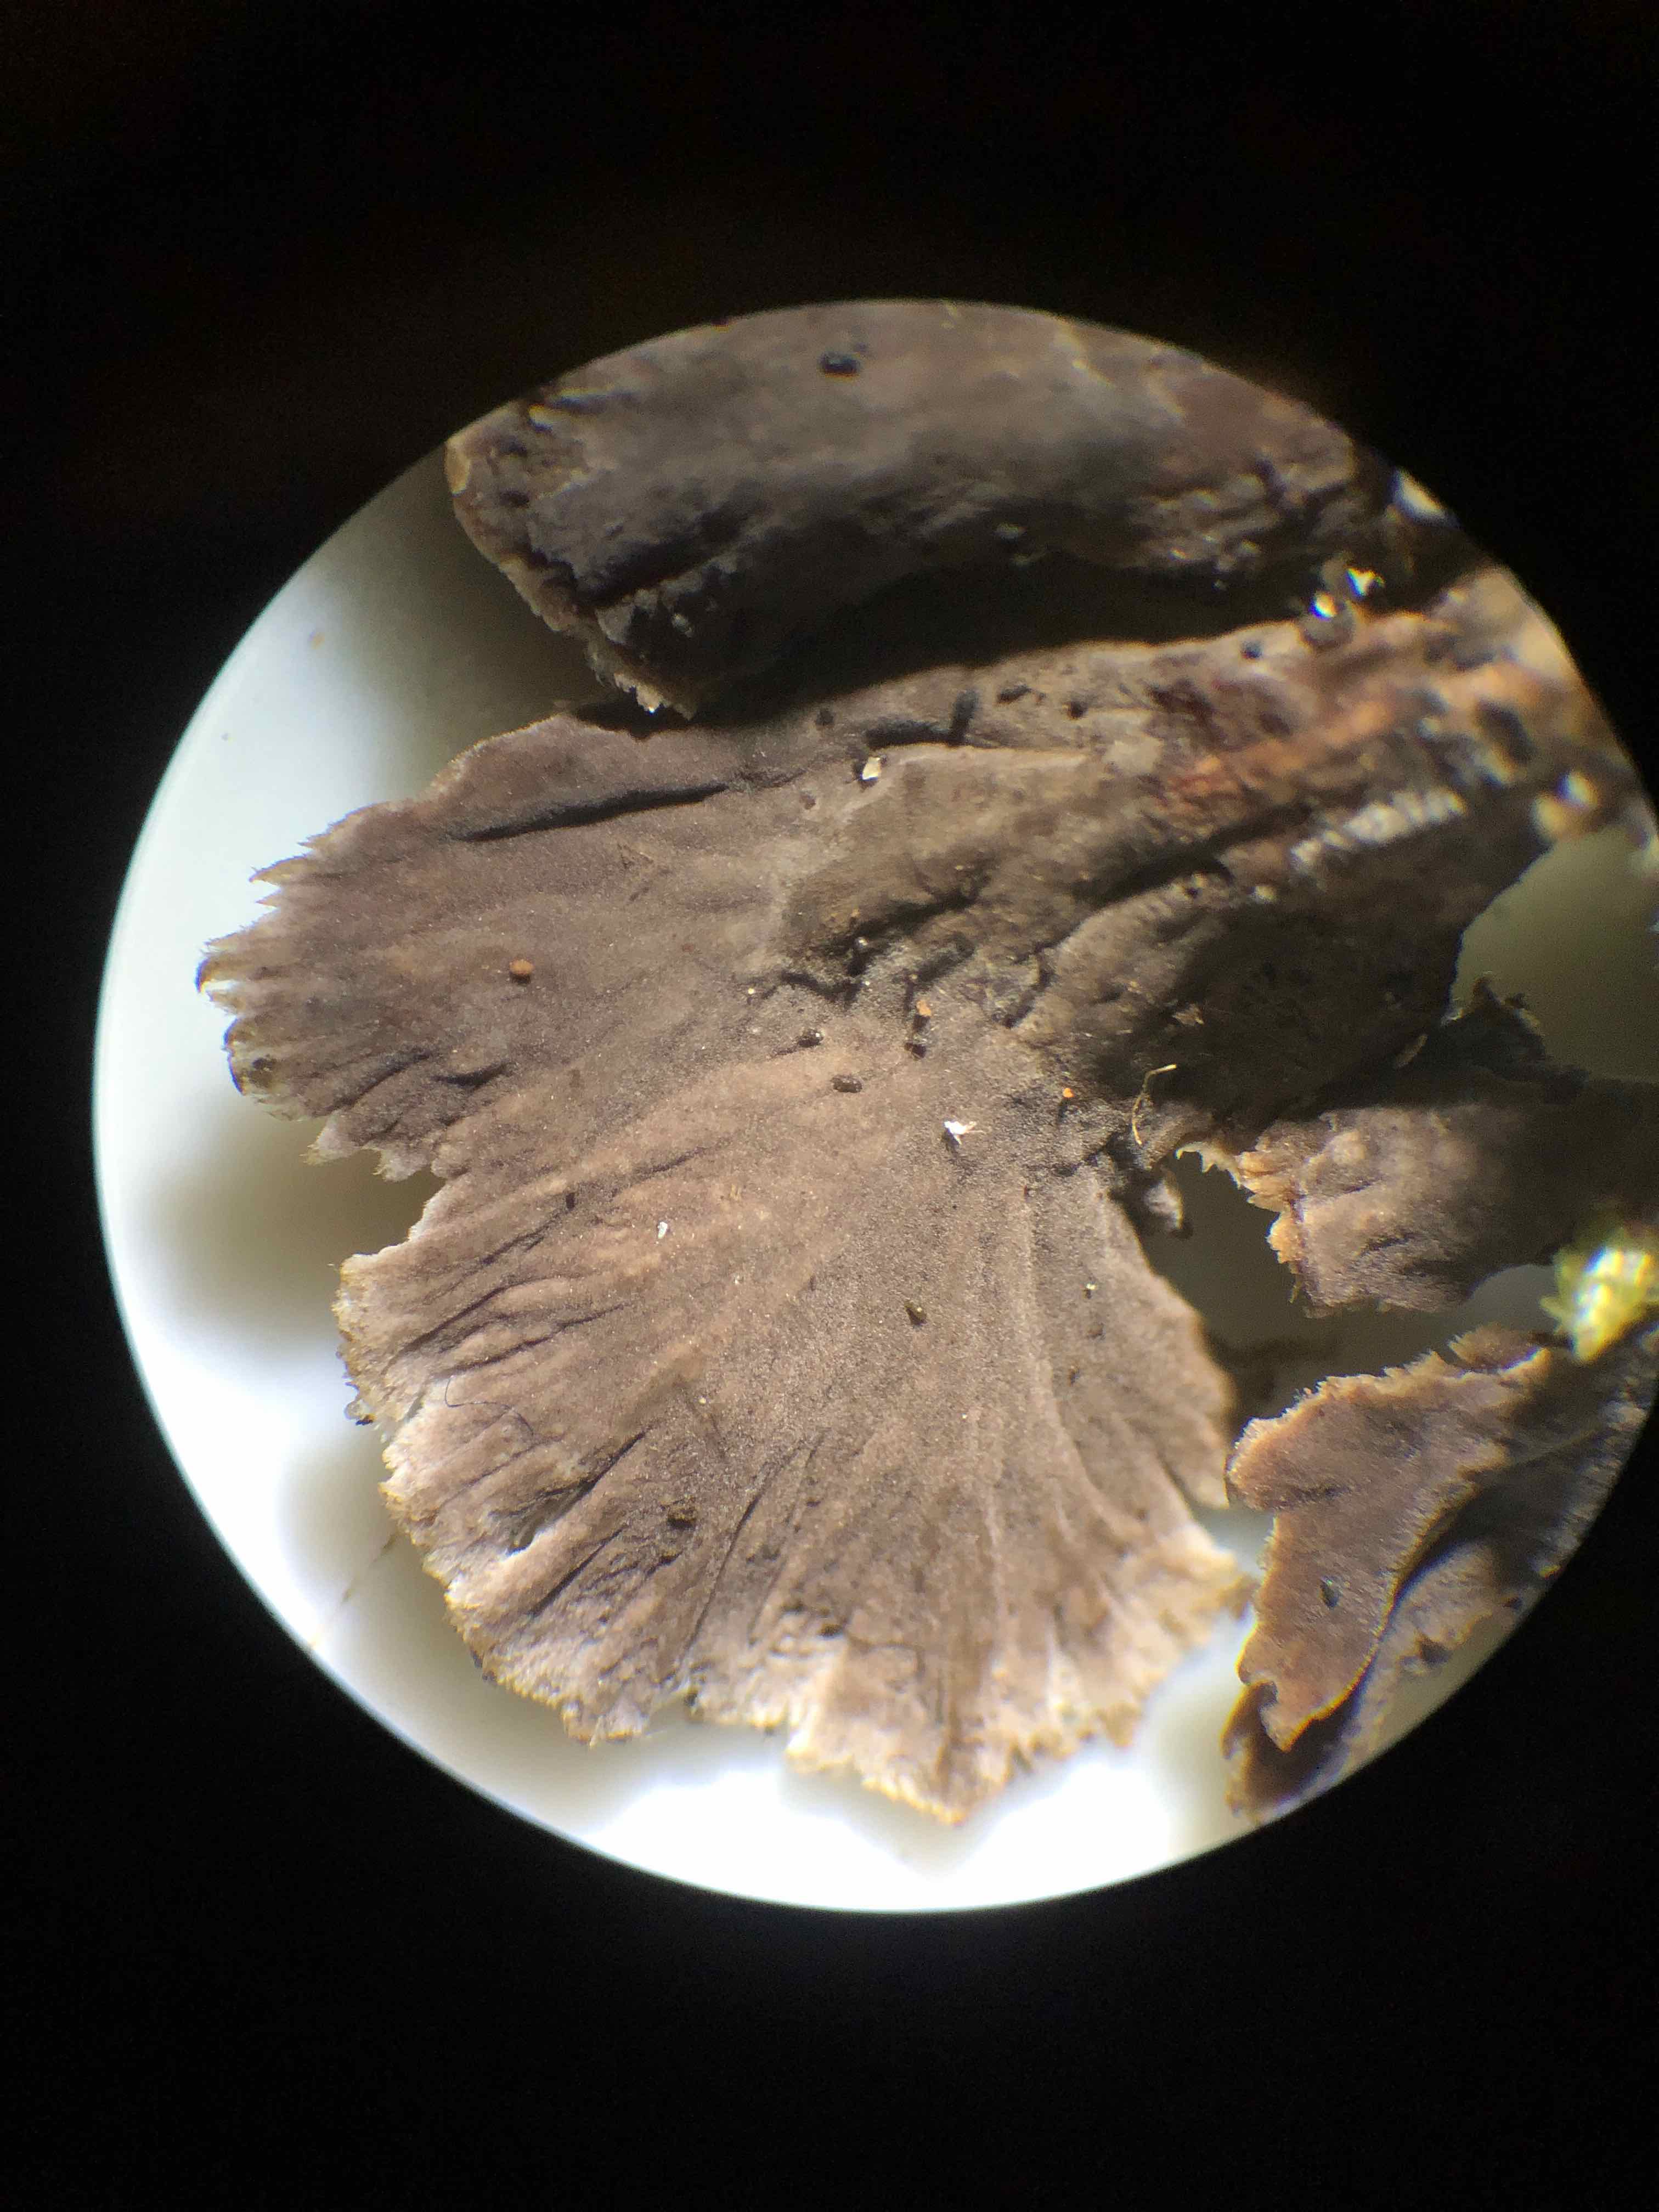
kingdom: Fungi
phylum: Basidiomycota
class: Agaricomycetes
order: Thelephorales
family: Thelephoraceae
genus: Thelephora
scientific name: Thelephora terrestris
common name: fliget frynsesvamp
